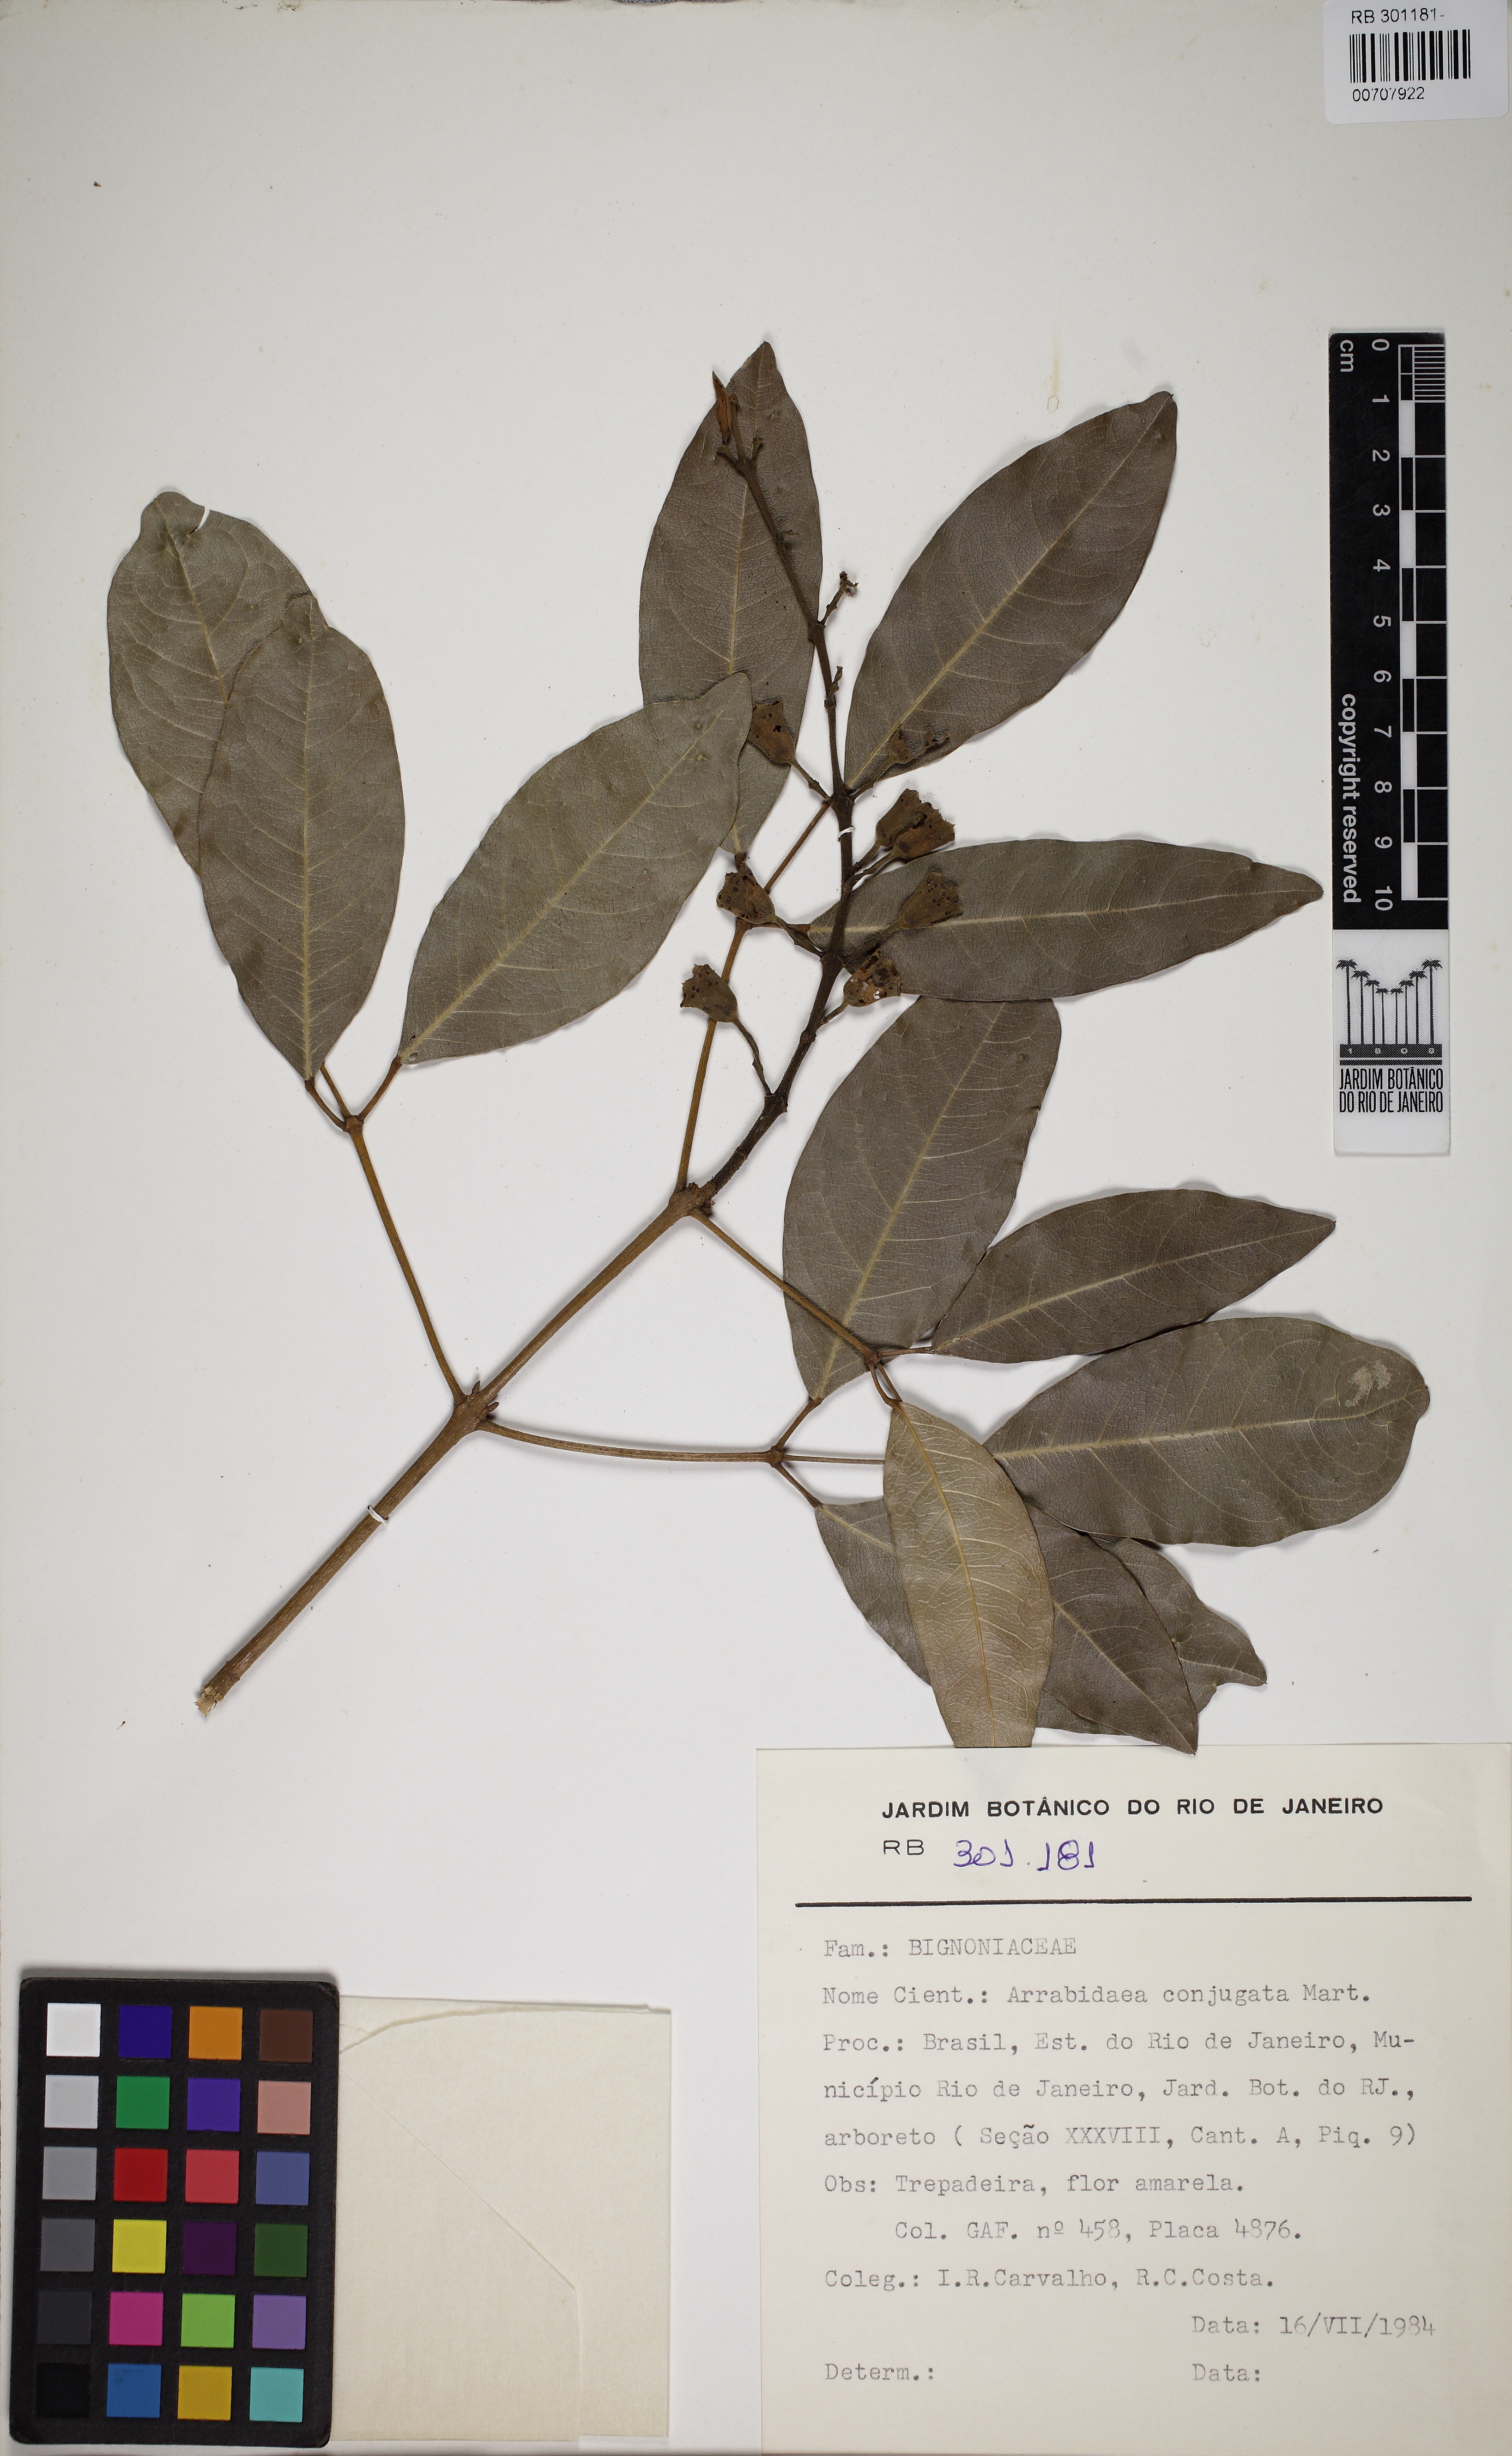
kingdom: Plantae
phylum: Tracheophyta
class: Magnoliopsida
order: Lamiales
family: Bignoniaceae
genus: Adenocalymma
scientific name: Adenocalymma acutissimum
